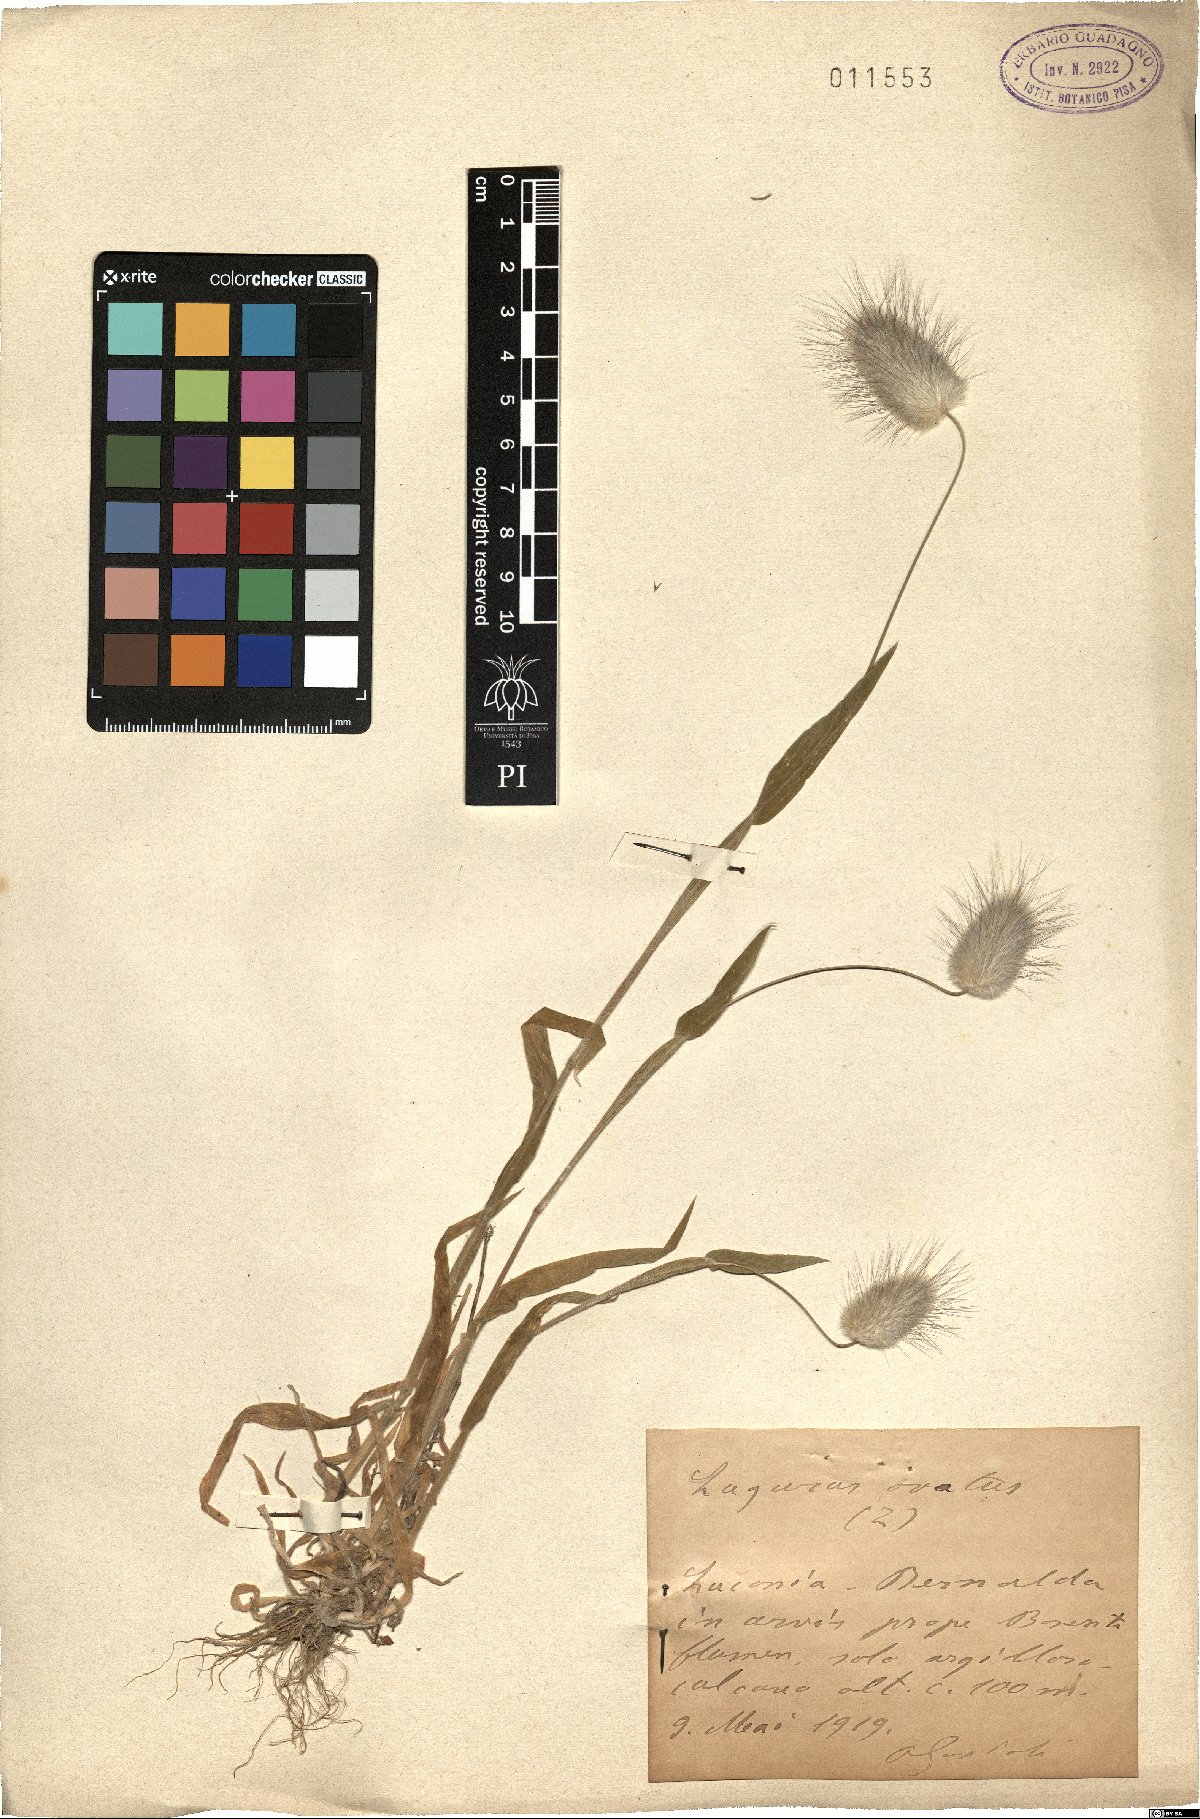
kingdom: Plantae
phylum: Tracheophyta
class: Liliopsida
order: Poales
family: Poaceae
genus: Lagurus
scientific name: Lagurus ovatus
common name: Hare's-tail
